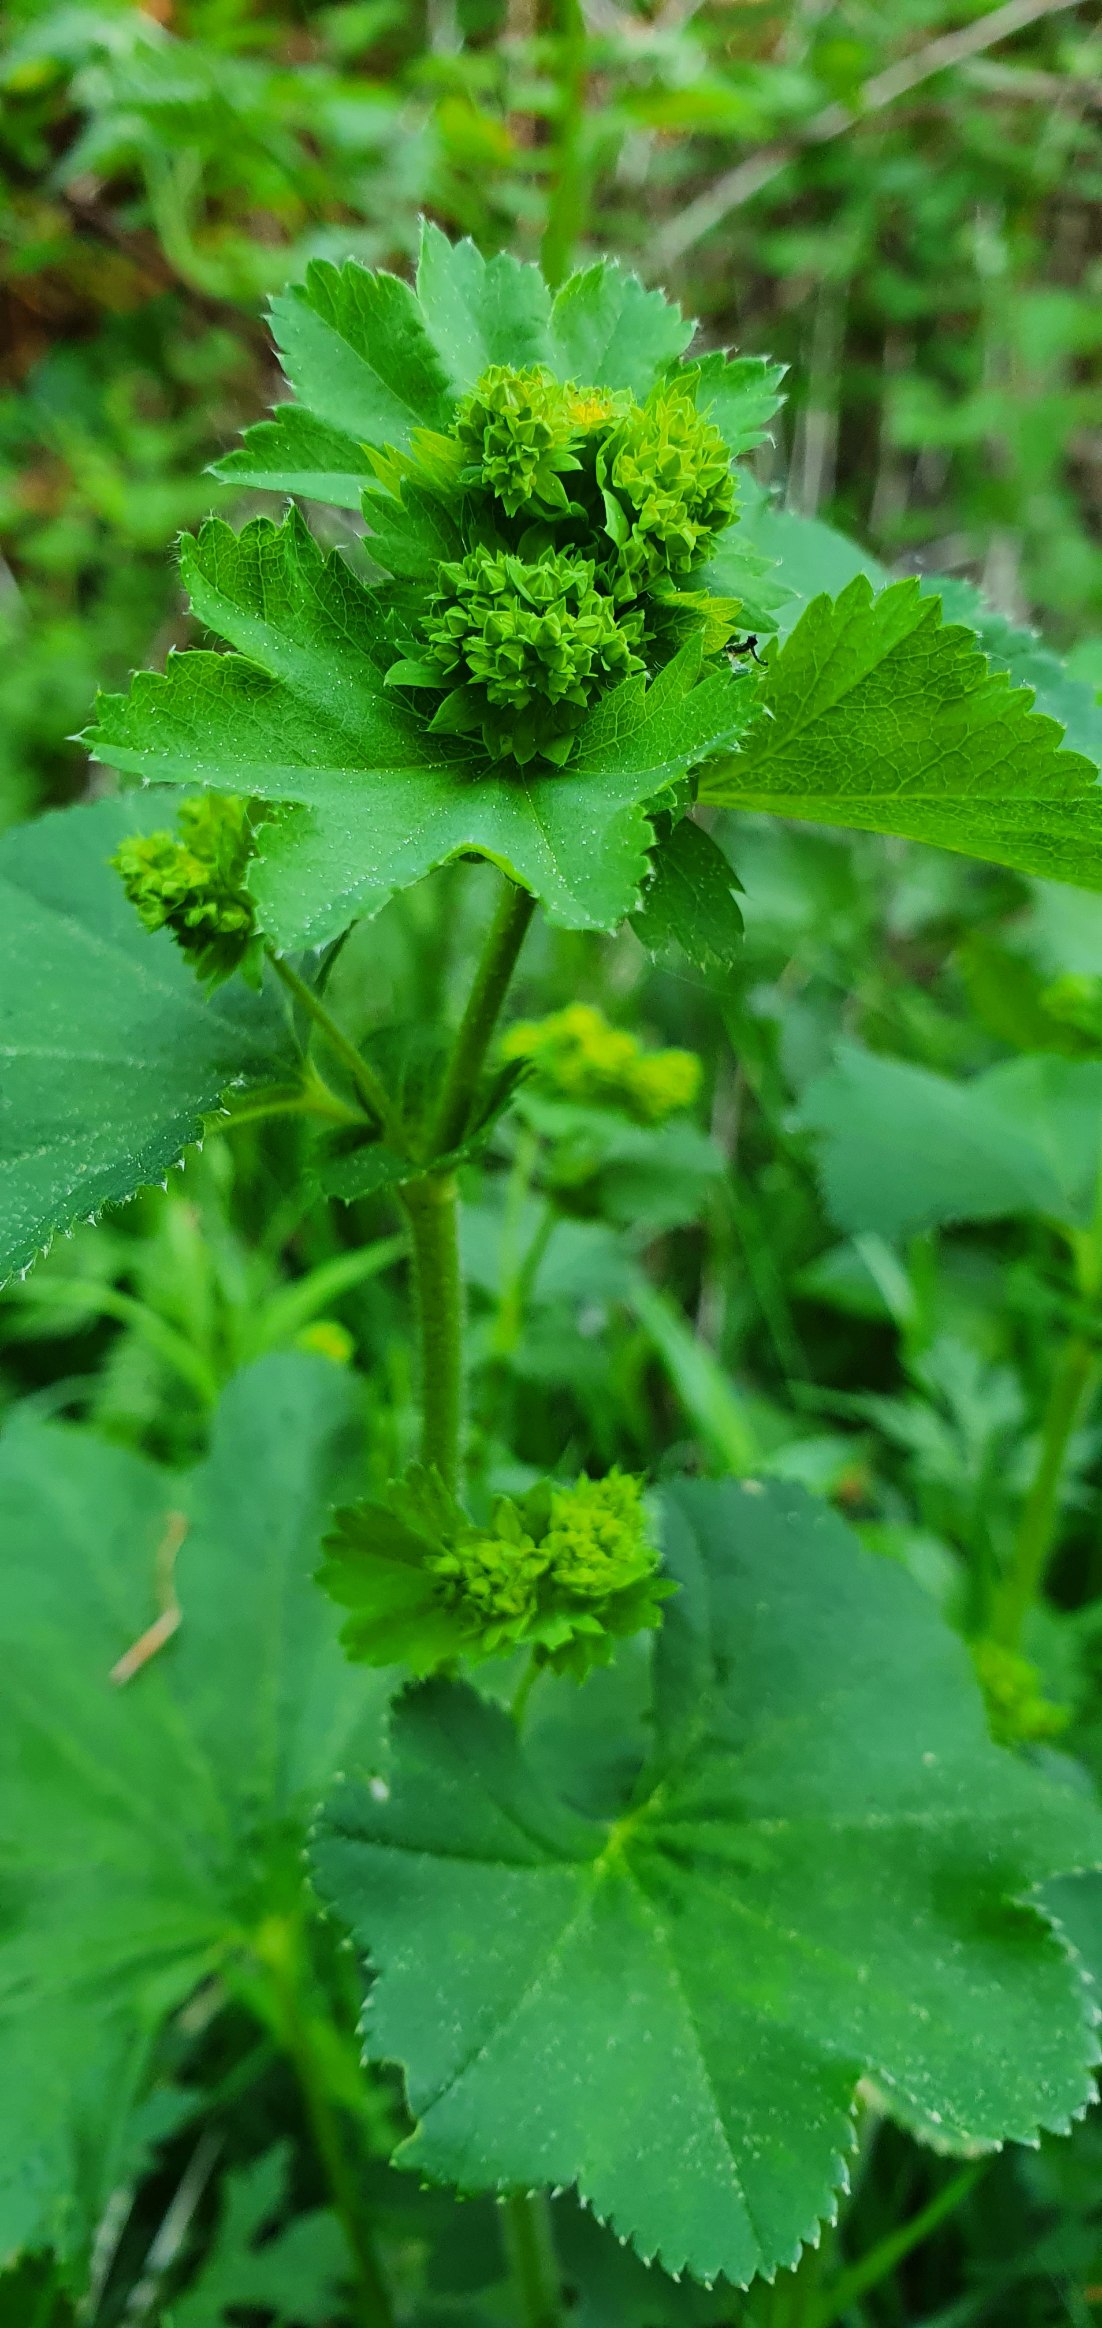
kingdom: Plantae
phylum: Tracheophyta
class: Magnoliopsida
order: Rosales
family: Rosaceae
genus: Alchemilla
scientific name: Alchemilla
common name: Løvefodslægten
